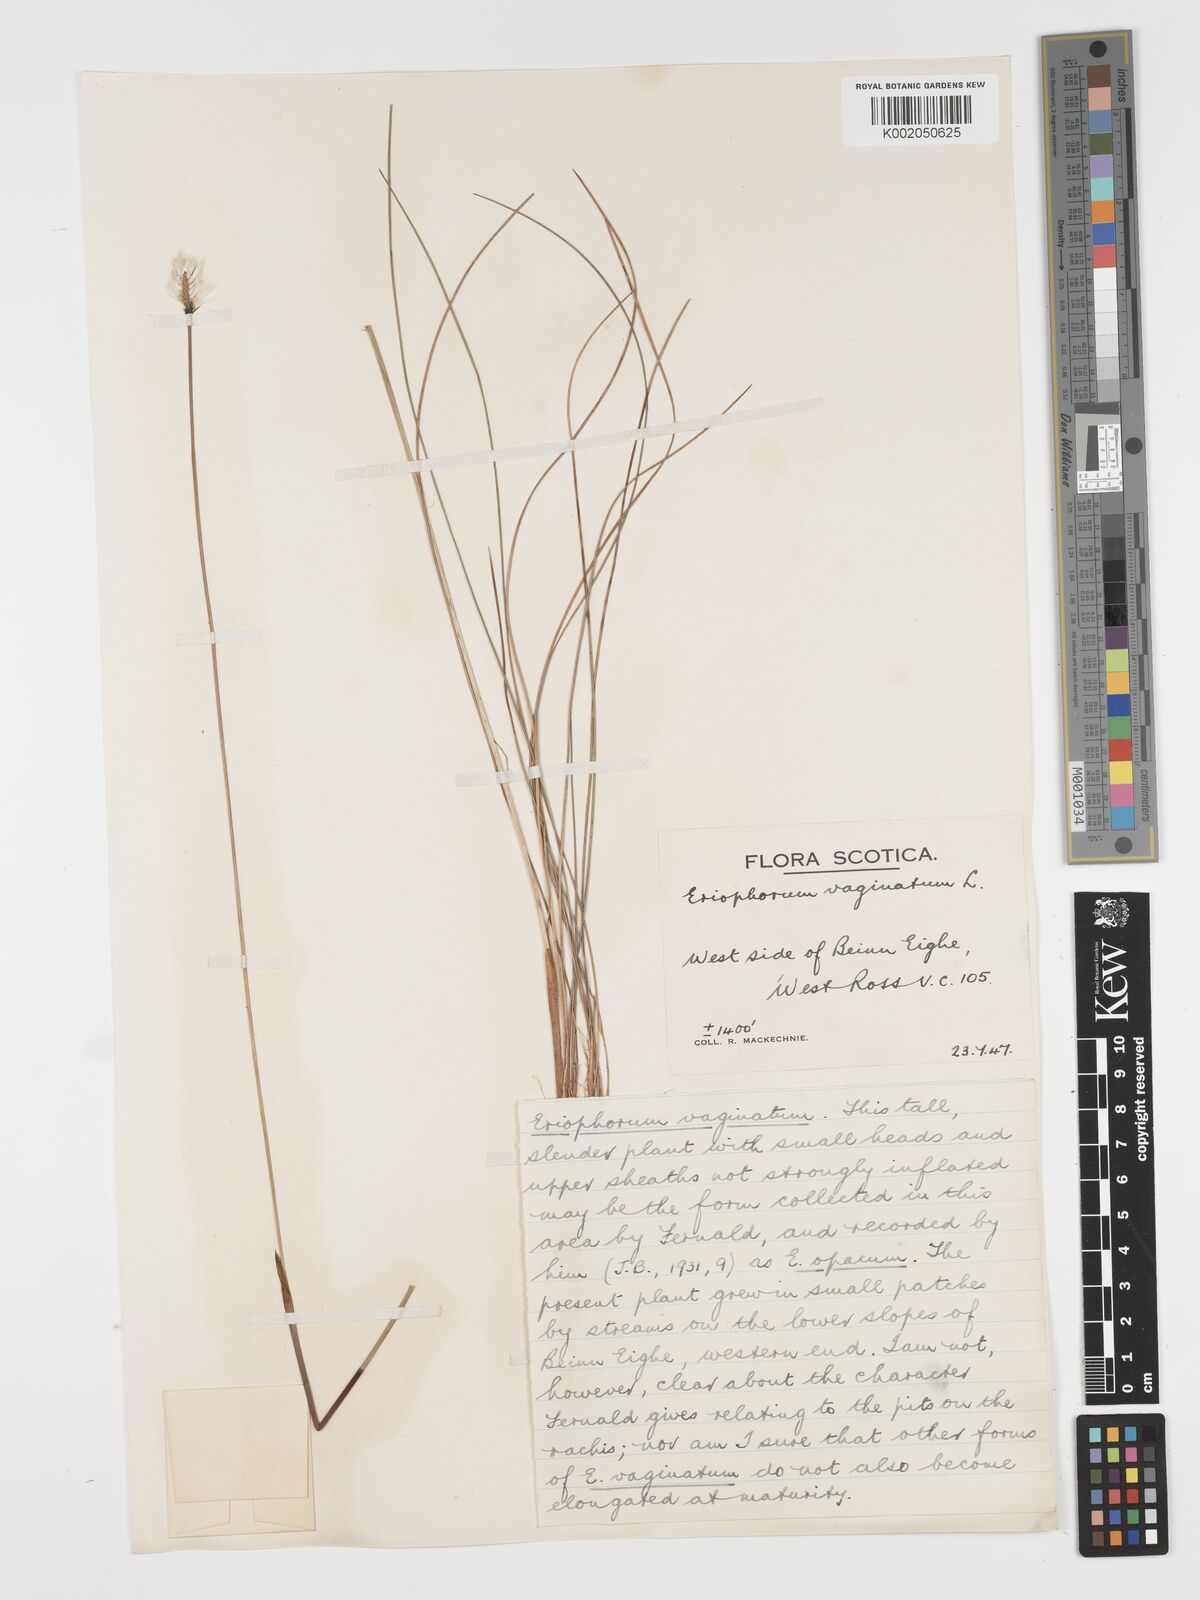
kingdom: Plantae
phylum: Tracheophyta
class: Liliopsida
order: Poales
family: Cyperaceae
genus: Eriophorum
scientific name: Eriophorum vaginatum
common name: Hare's-tail cottongrass
